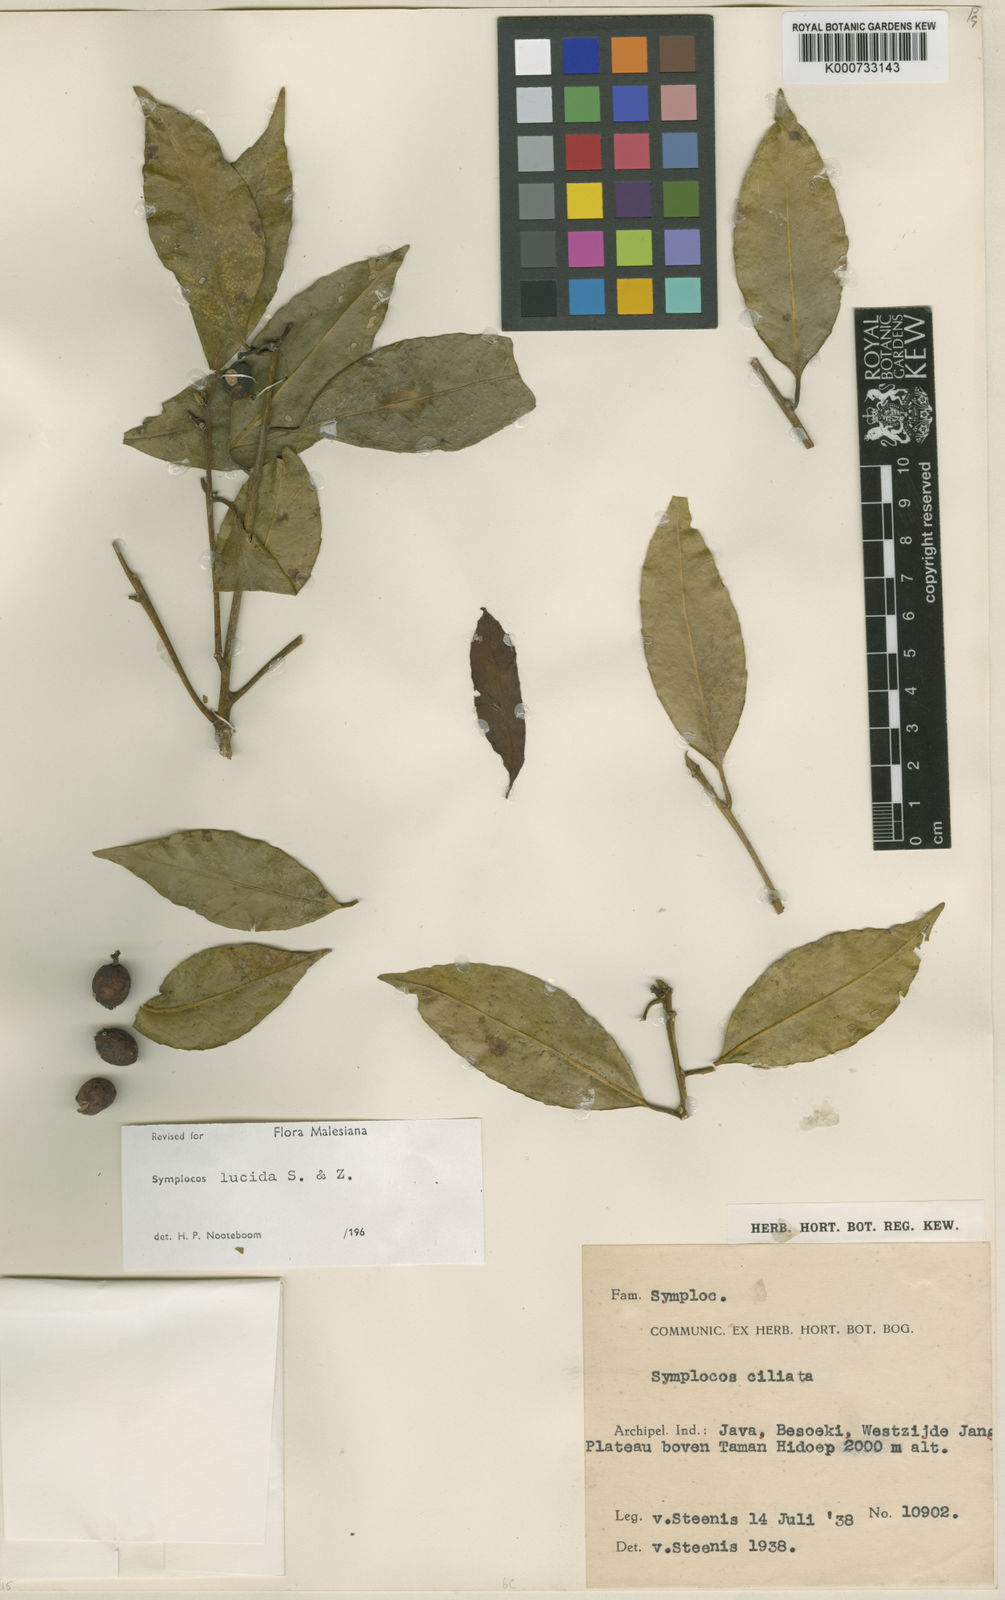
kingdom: Plantae
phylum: Tracheophyta
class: Magnoliopsida
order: Ericales
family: Symplocaceae
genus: Symplocos
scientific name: Symplocos
